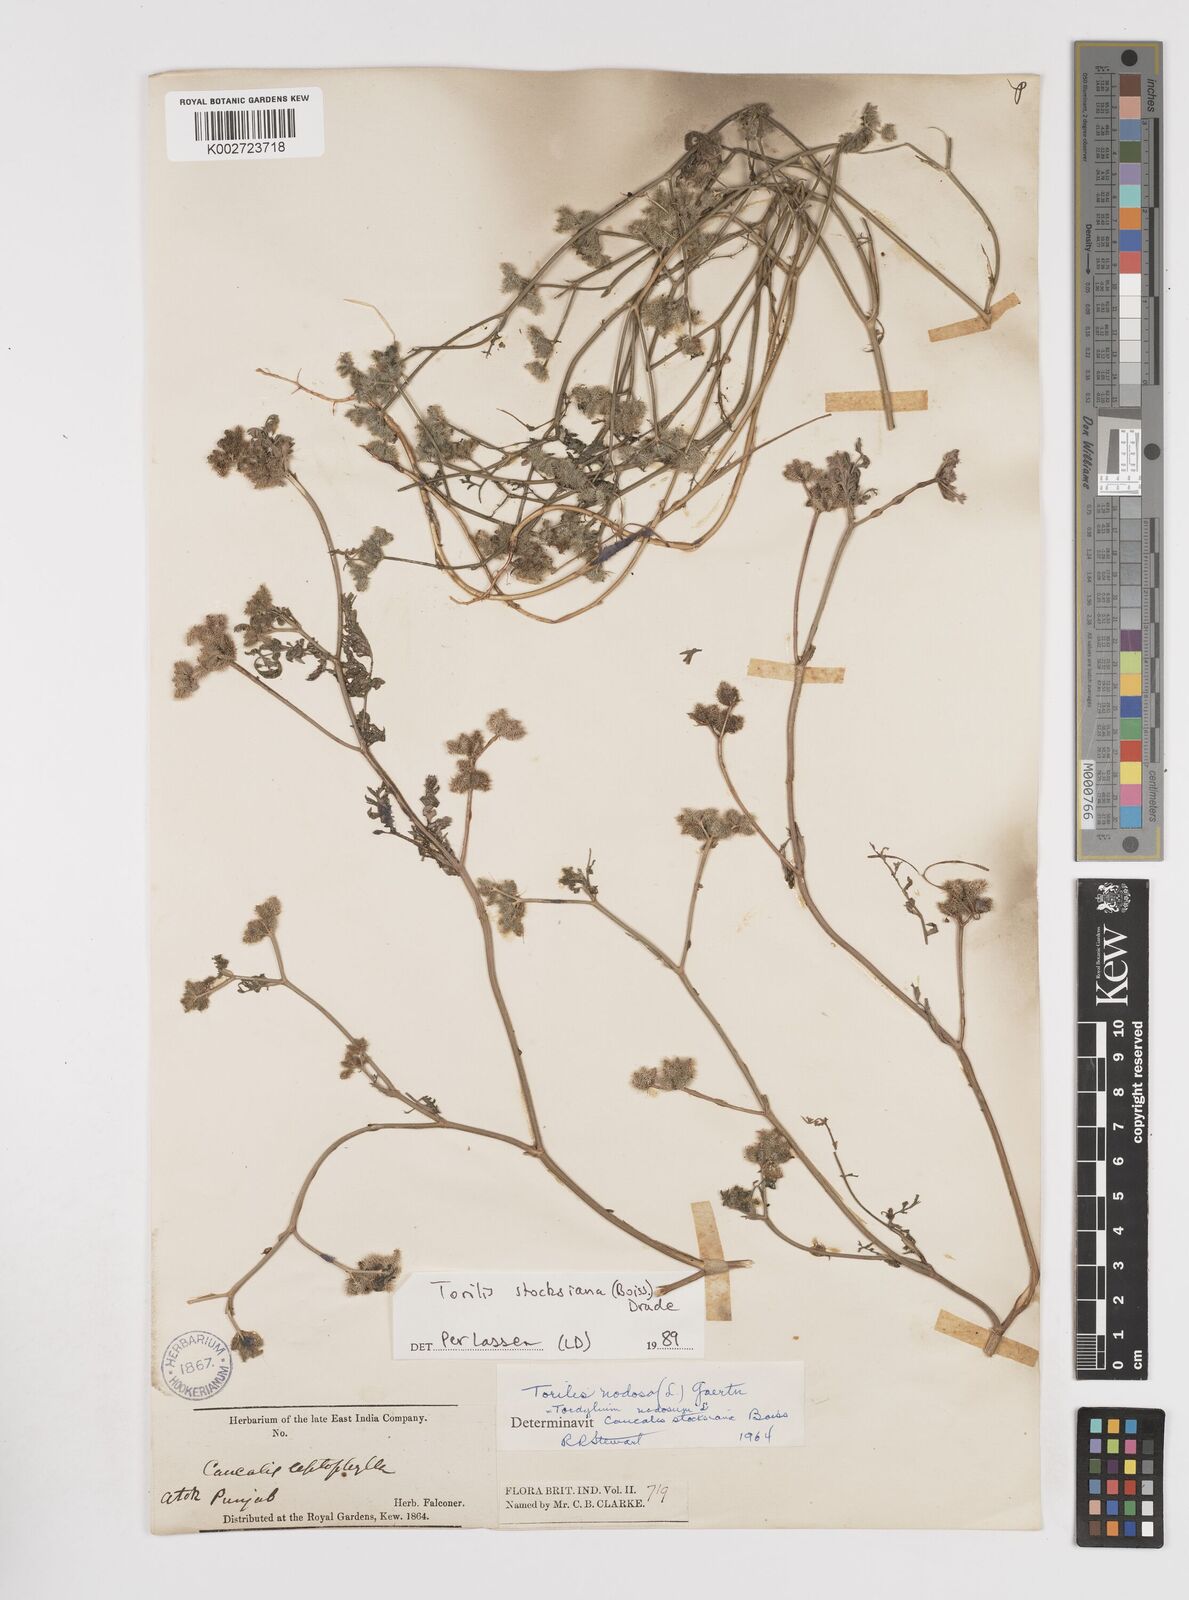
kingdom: Plantae
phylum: Tracheophyta
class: Magnoliopsida
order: Apiales
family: Apiaceae
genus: Torilis
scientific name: Torilis stocksiana
